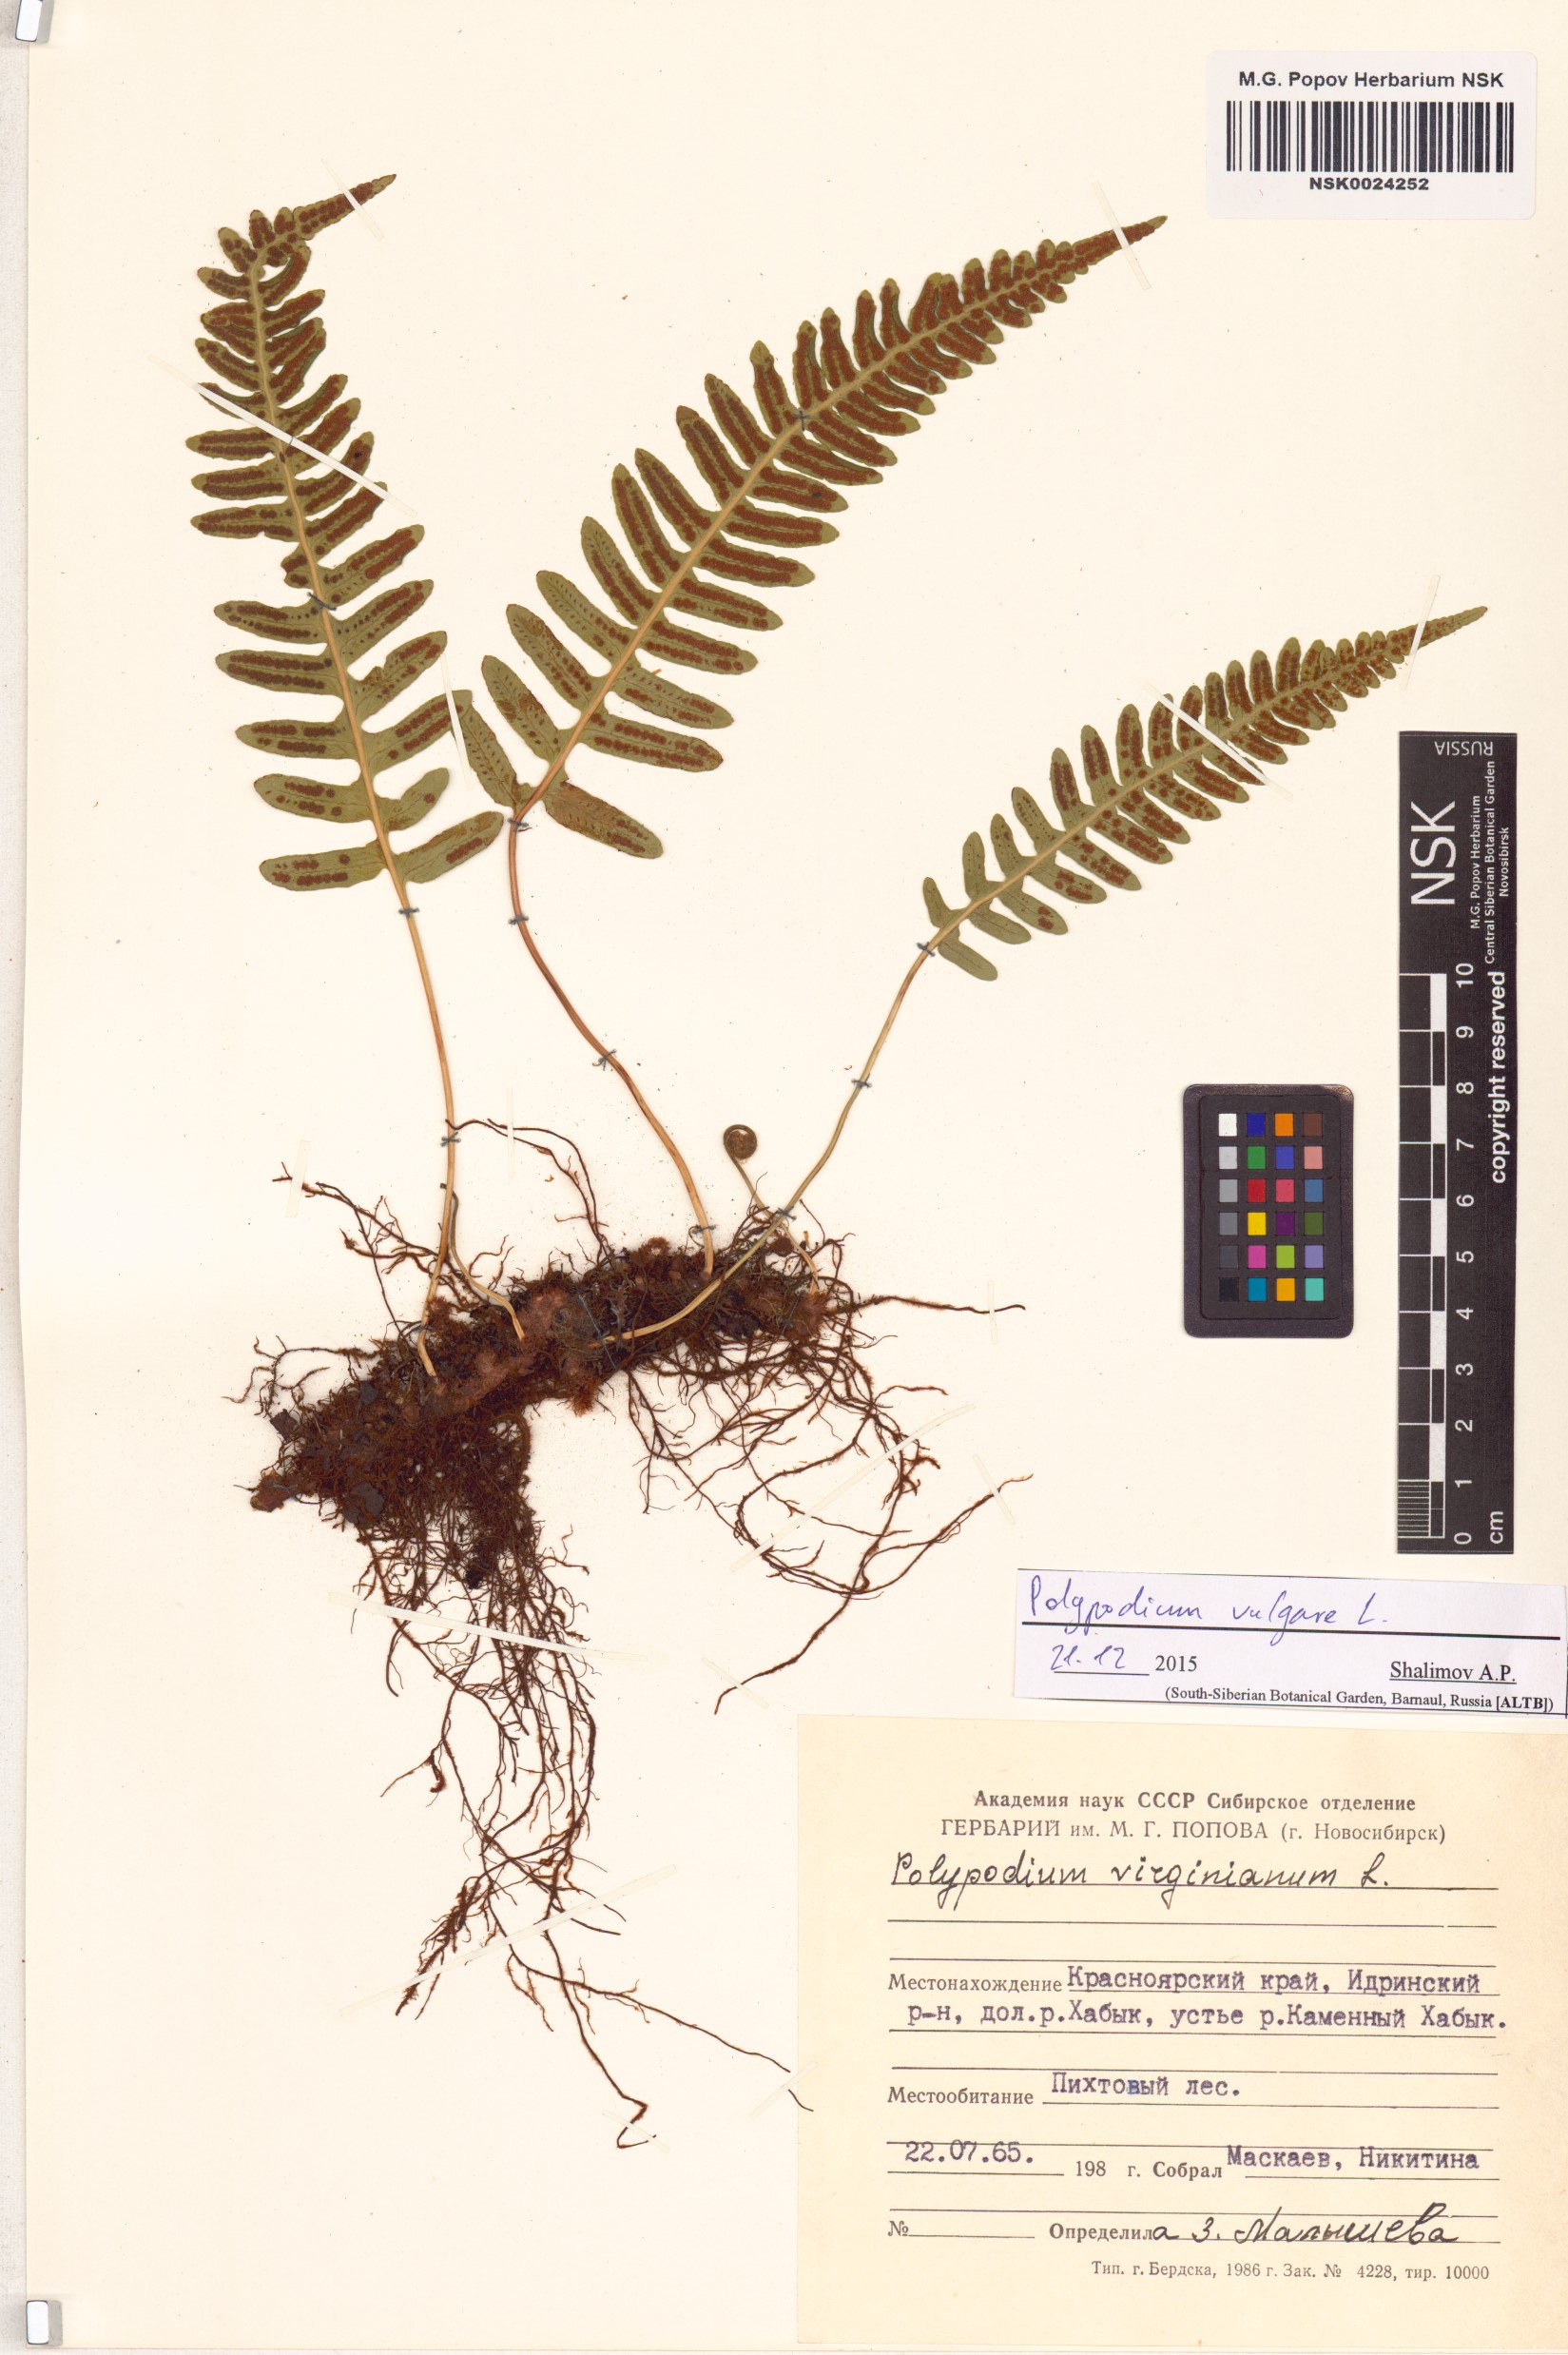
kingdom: Plantae
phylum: Tracheophyta
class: Polypodiopsida
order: Polypodiales
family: Polypodiaceae
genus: Polypodium
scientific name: Polypodium vulgare
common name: Common polypody
